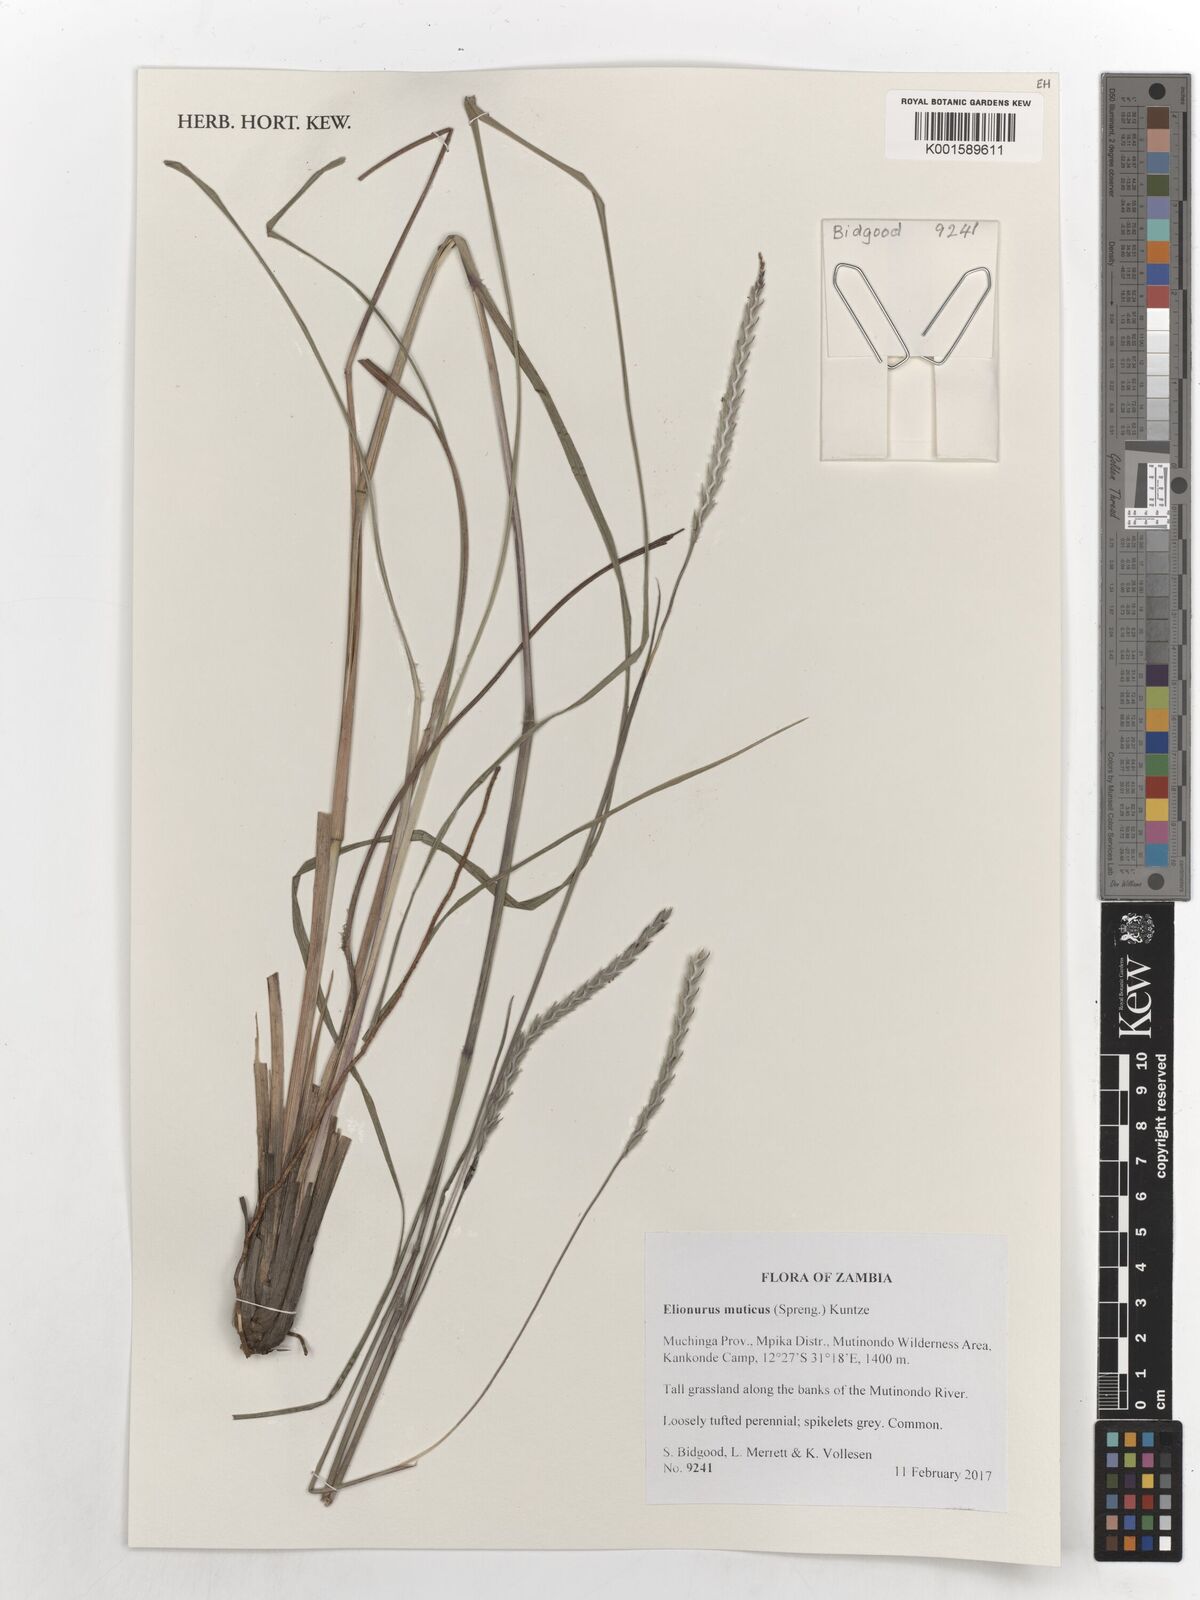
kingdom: Plantae
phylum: Tracheophyta
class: Liliopsida
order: Poales
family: Poaceae
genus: Elionurus
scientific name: Elionurus muticus
